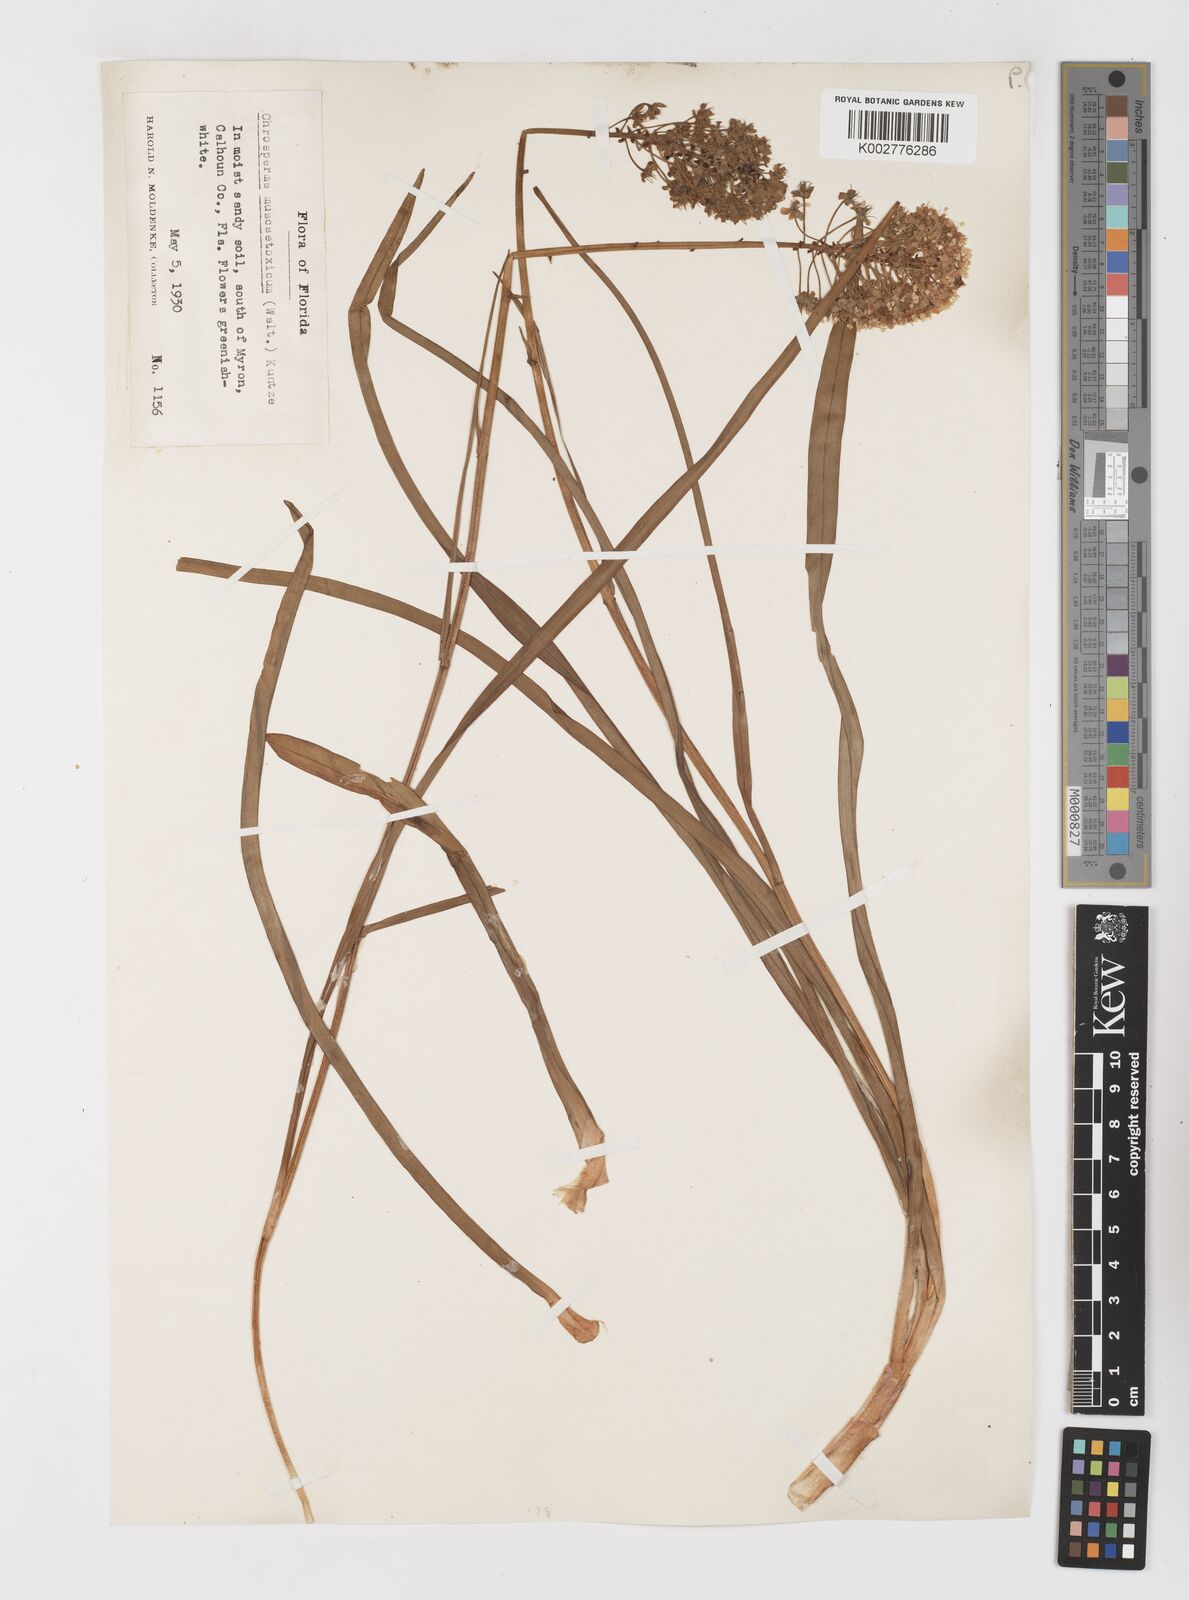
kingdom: Plantae
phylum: Tracheophyta
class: Liliopsida
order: Liliales
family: Melanthiaceae
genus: Amianthium
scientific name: Amianthium muscitoxicum
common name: Fly-poison
